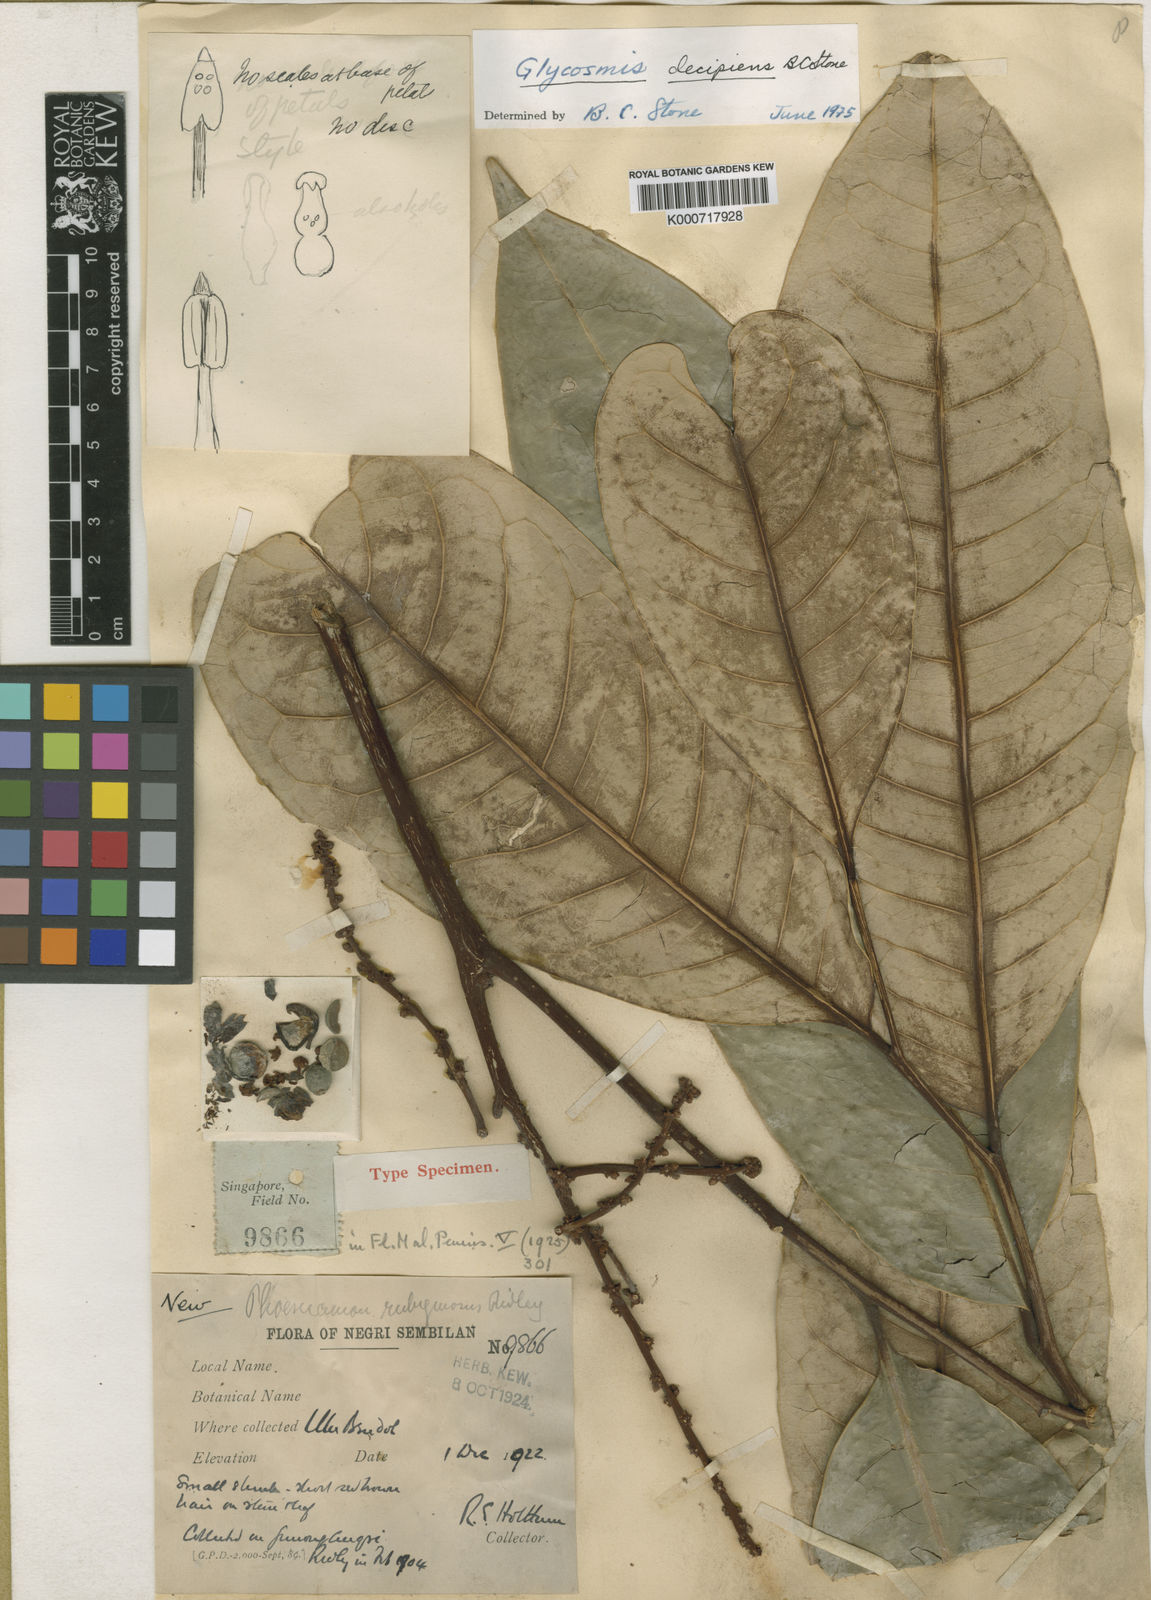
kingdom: Plantae
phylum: Tracheophyta
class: Magnoliopsida
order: Sapindales
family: Rutaceae
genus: Glycosmis
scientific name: Glycosmis decipiens
